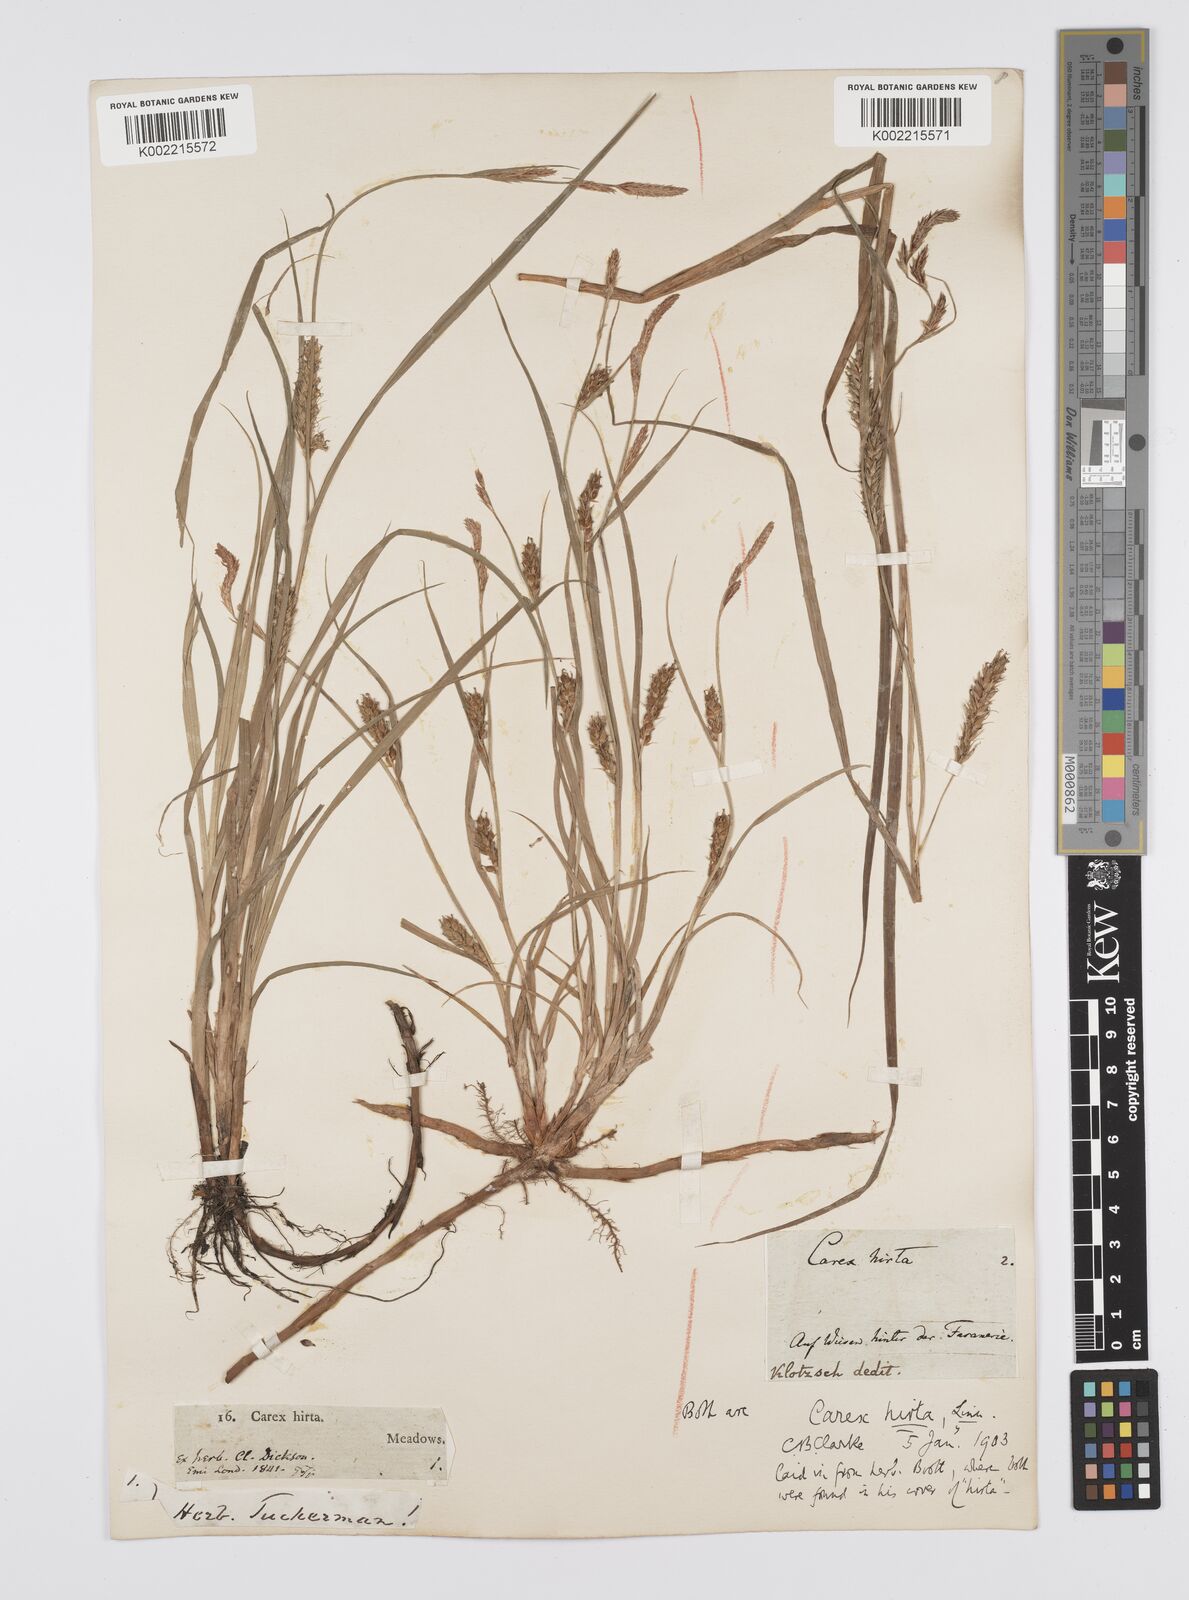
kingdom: Plantae
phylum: Tracheophyta
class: Liliopsida
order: Poales
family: Cyperaceae
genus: Carex
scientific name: Carex hirta
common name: Hairy sedge
